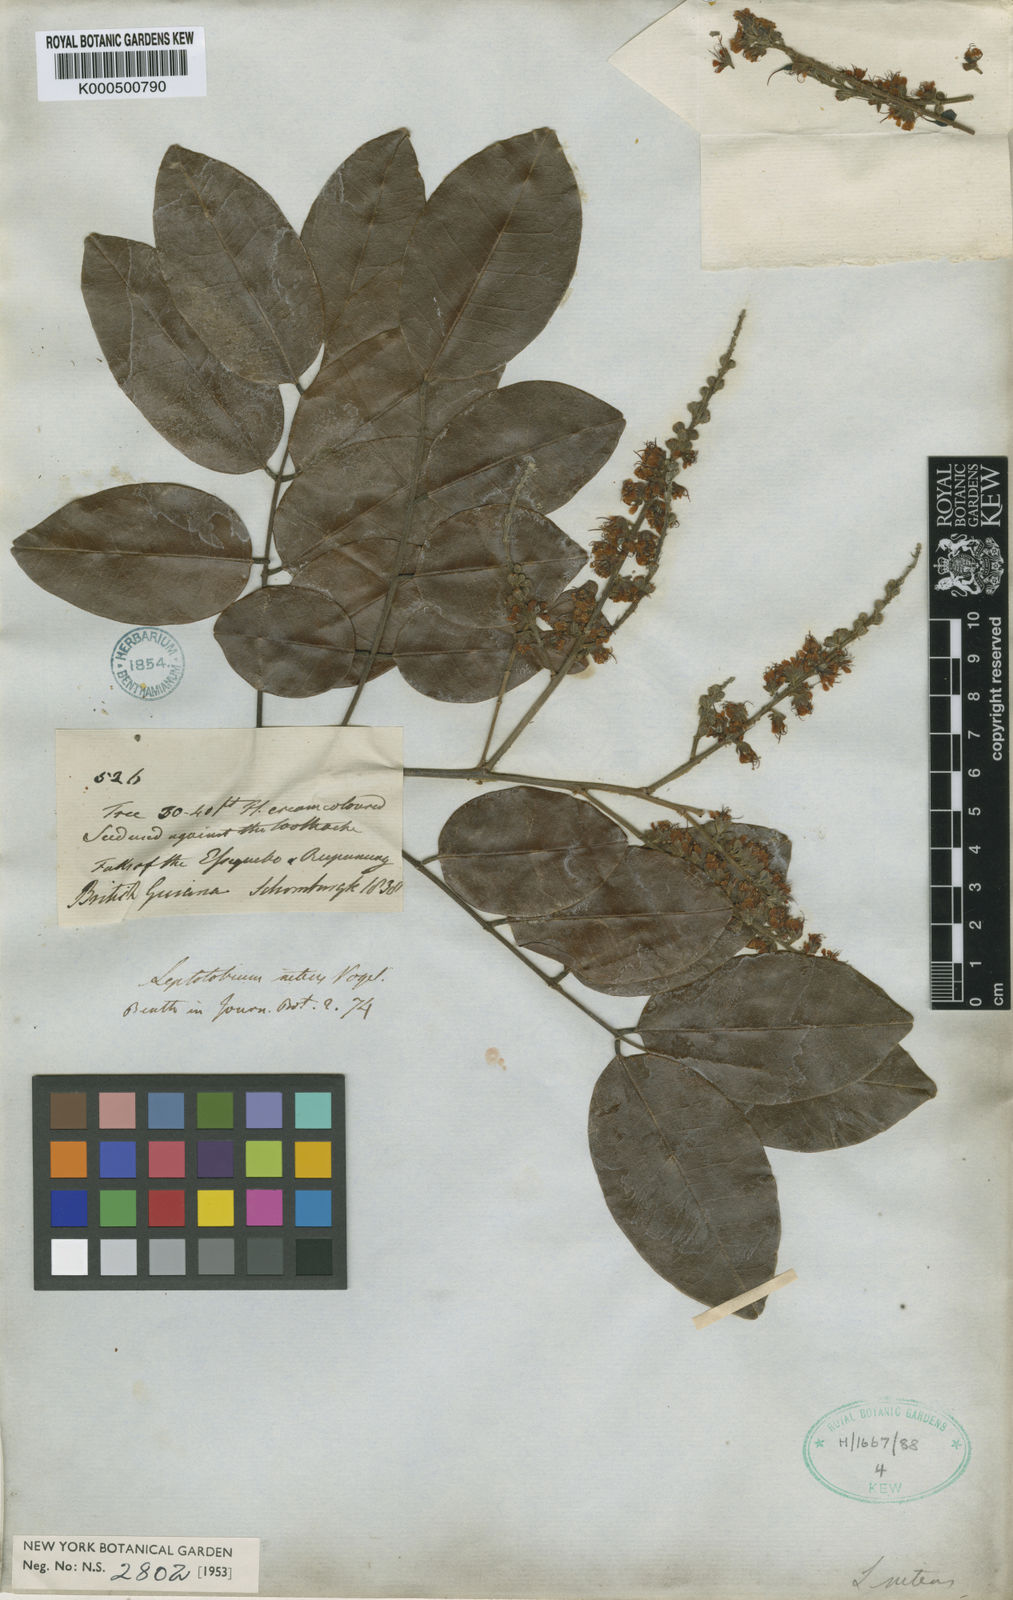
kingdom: Plantae
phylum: Tracheophyta
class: Magnoliopsida
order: Fabales
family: Fabaceae
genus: Leptolobium
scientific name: Leptolobium nitens
